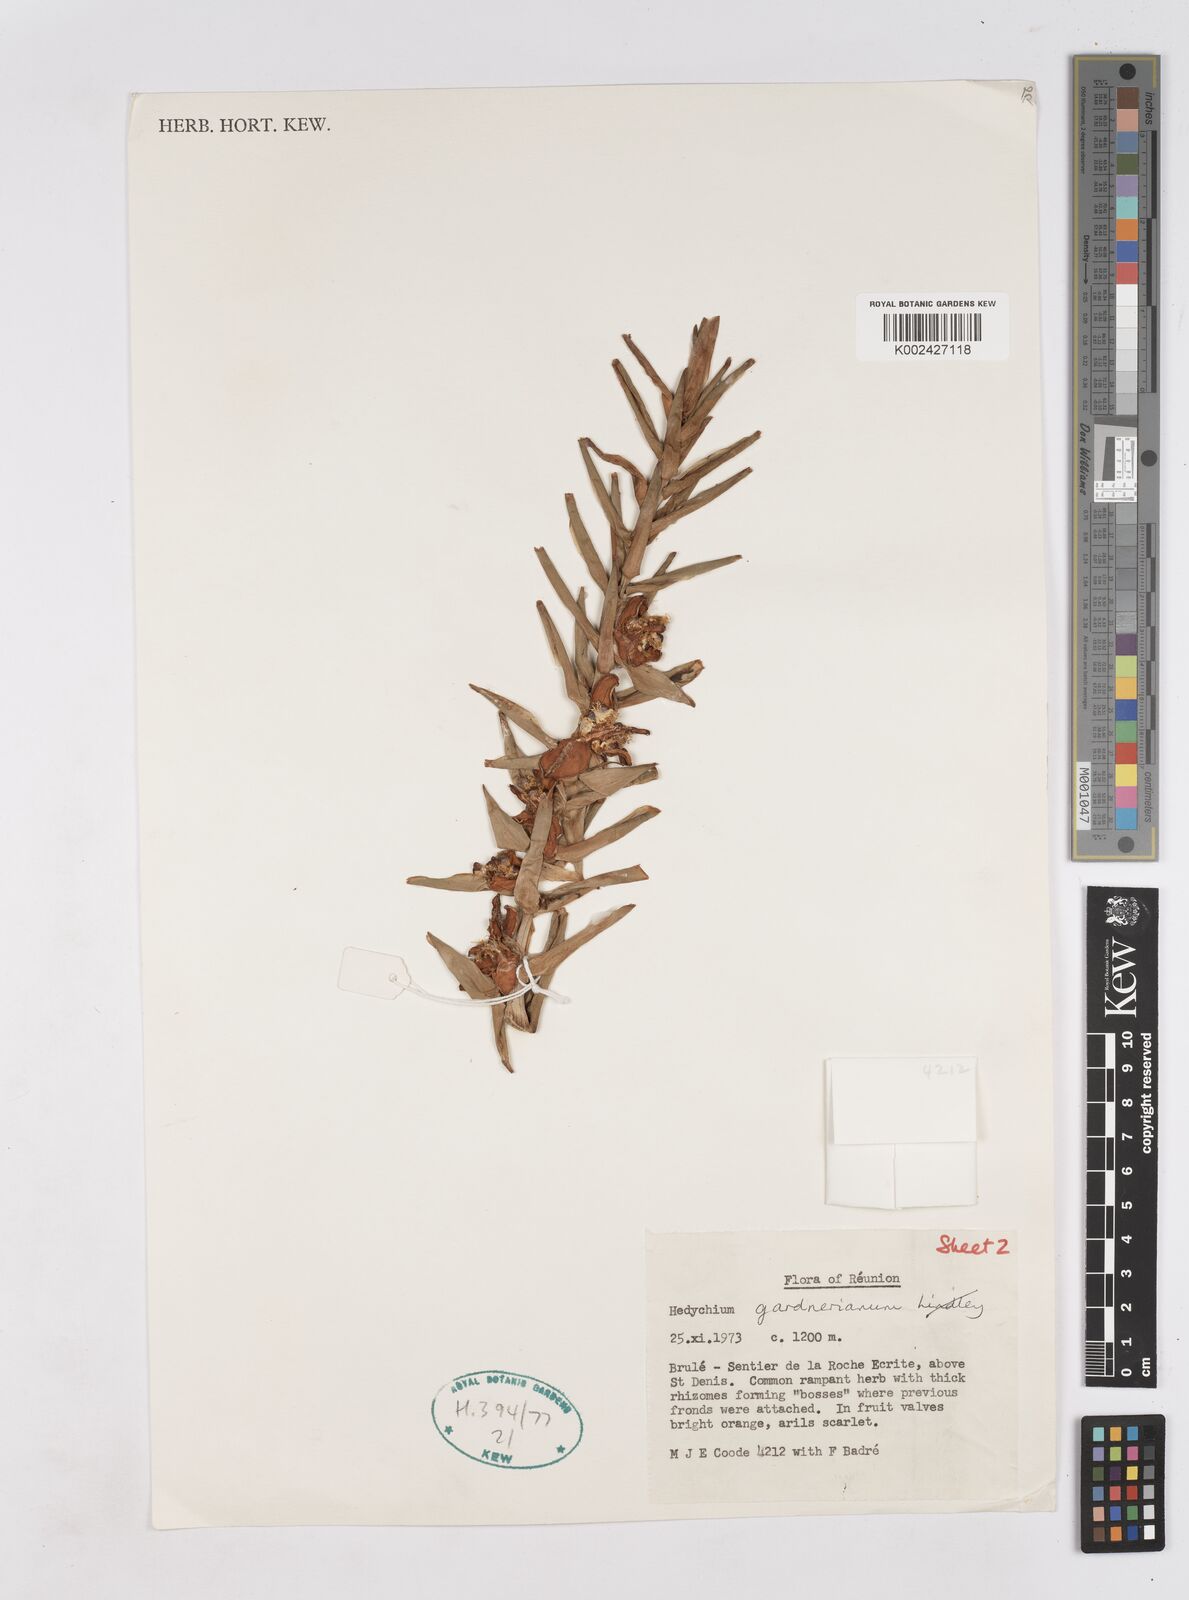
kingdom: Plantae
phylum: Tracheophyta
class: Liliopsida
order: Zingiberales
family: Zingiberaceae
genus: Hedychium
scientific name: Hedychium gardnerianum
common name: Himalayan ginger
